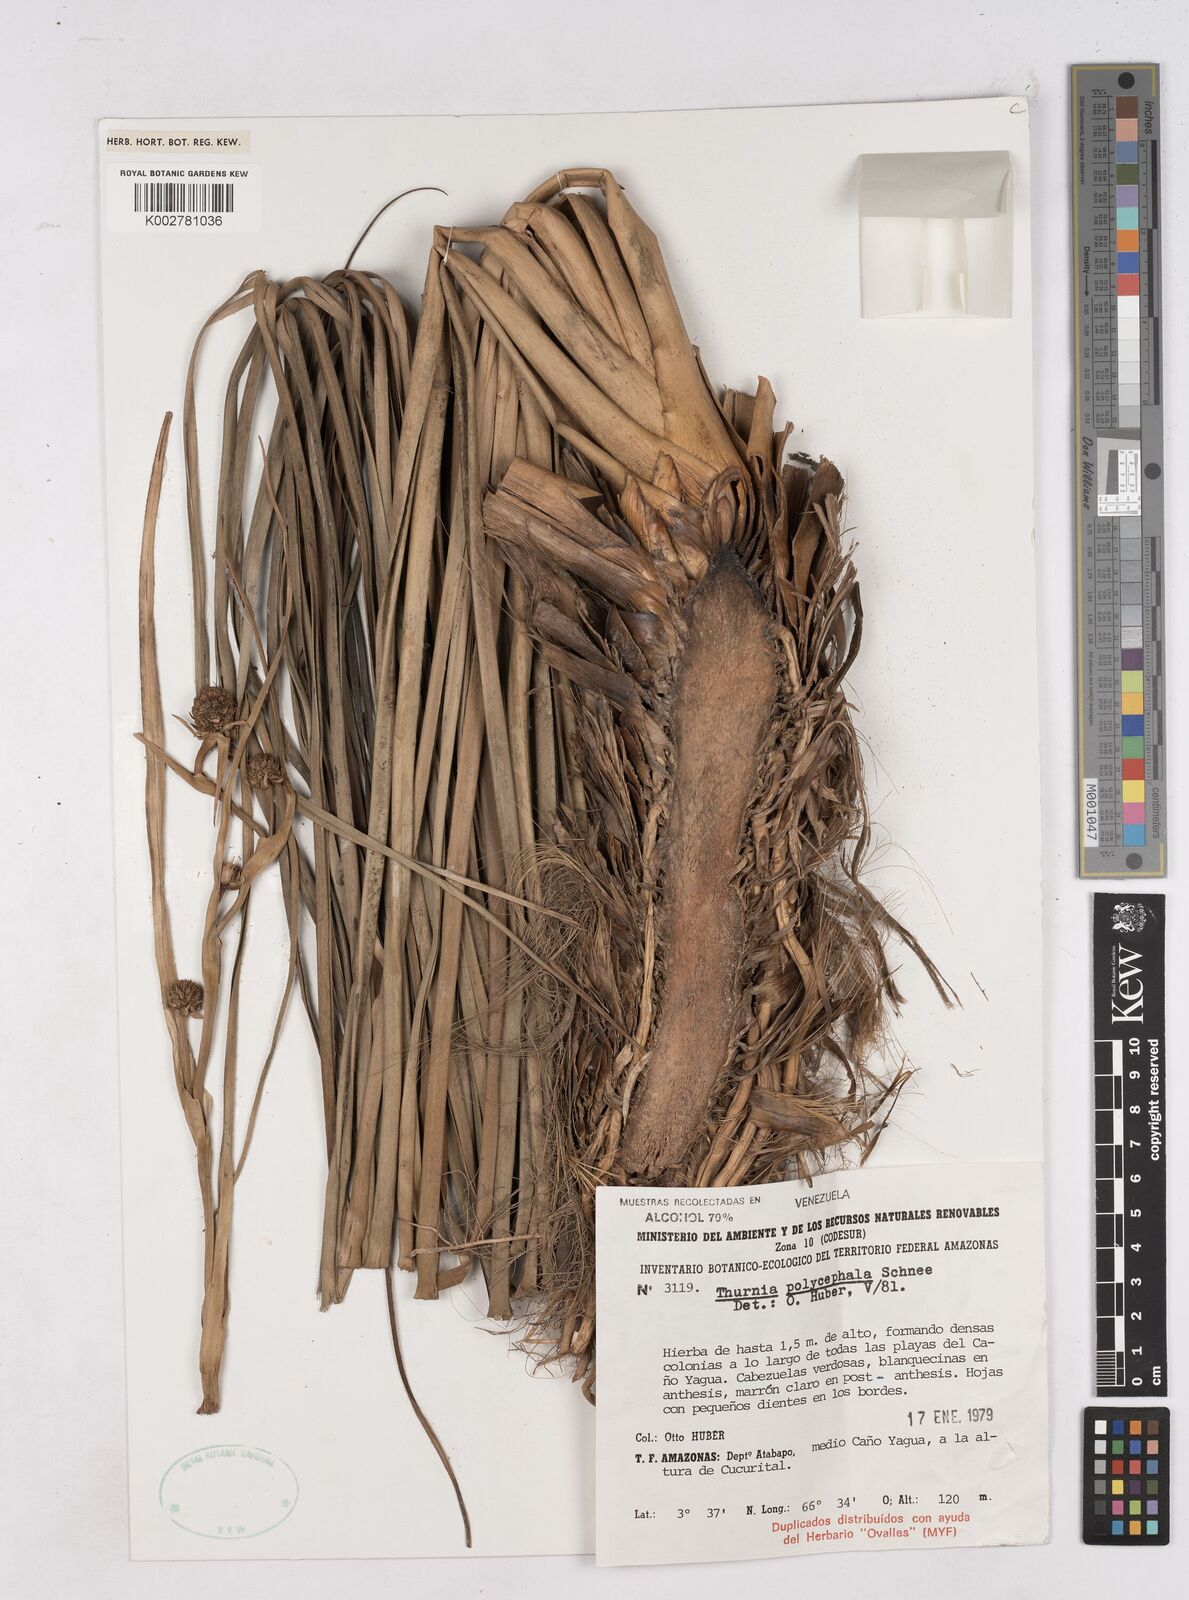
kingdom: Plantae
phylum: Tracheophyta
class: Liliopsida
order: Poales
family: Thurniaceae
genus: Thurnia
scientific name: Thurnia polycephala
